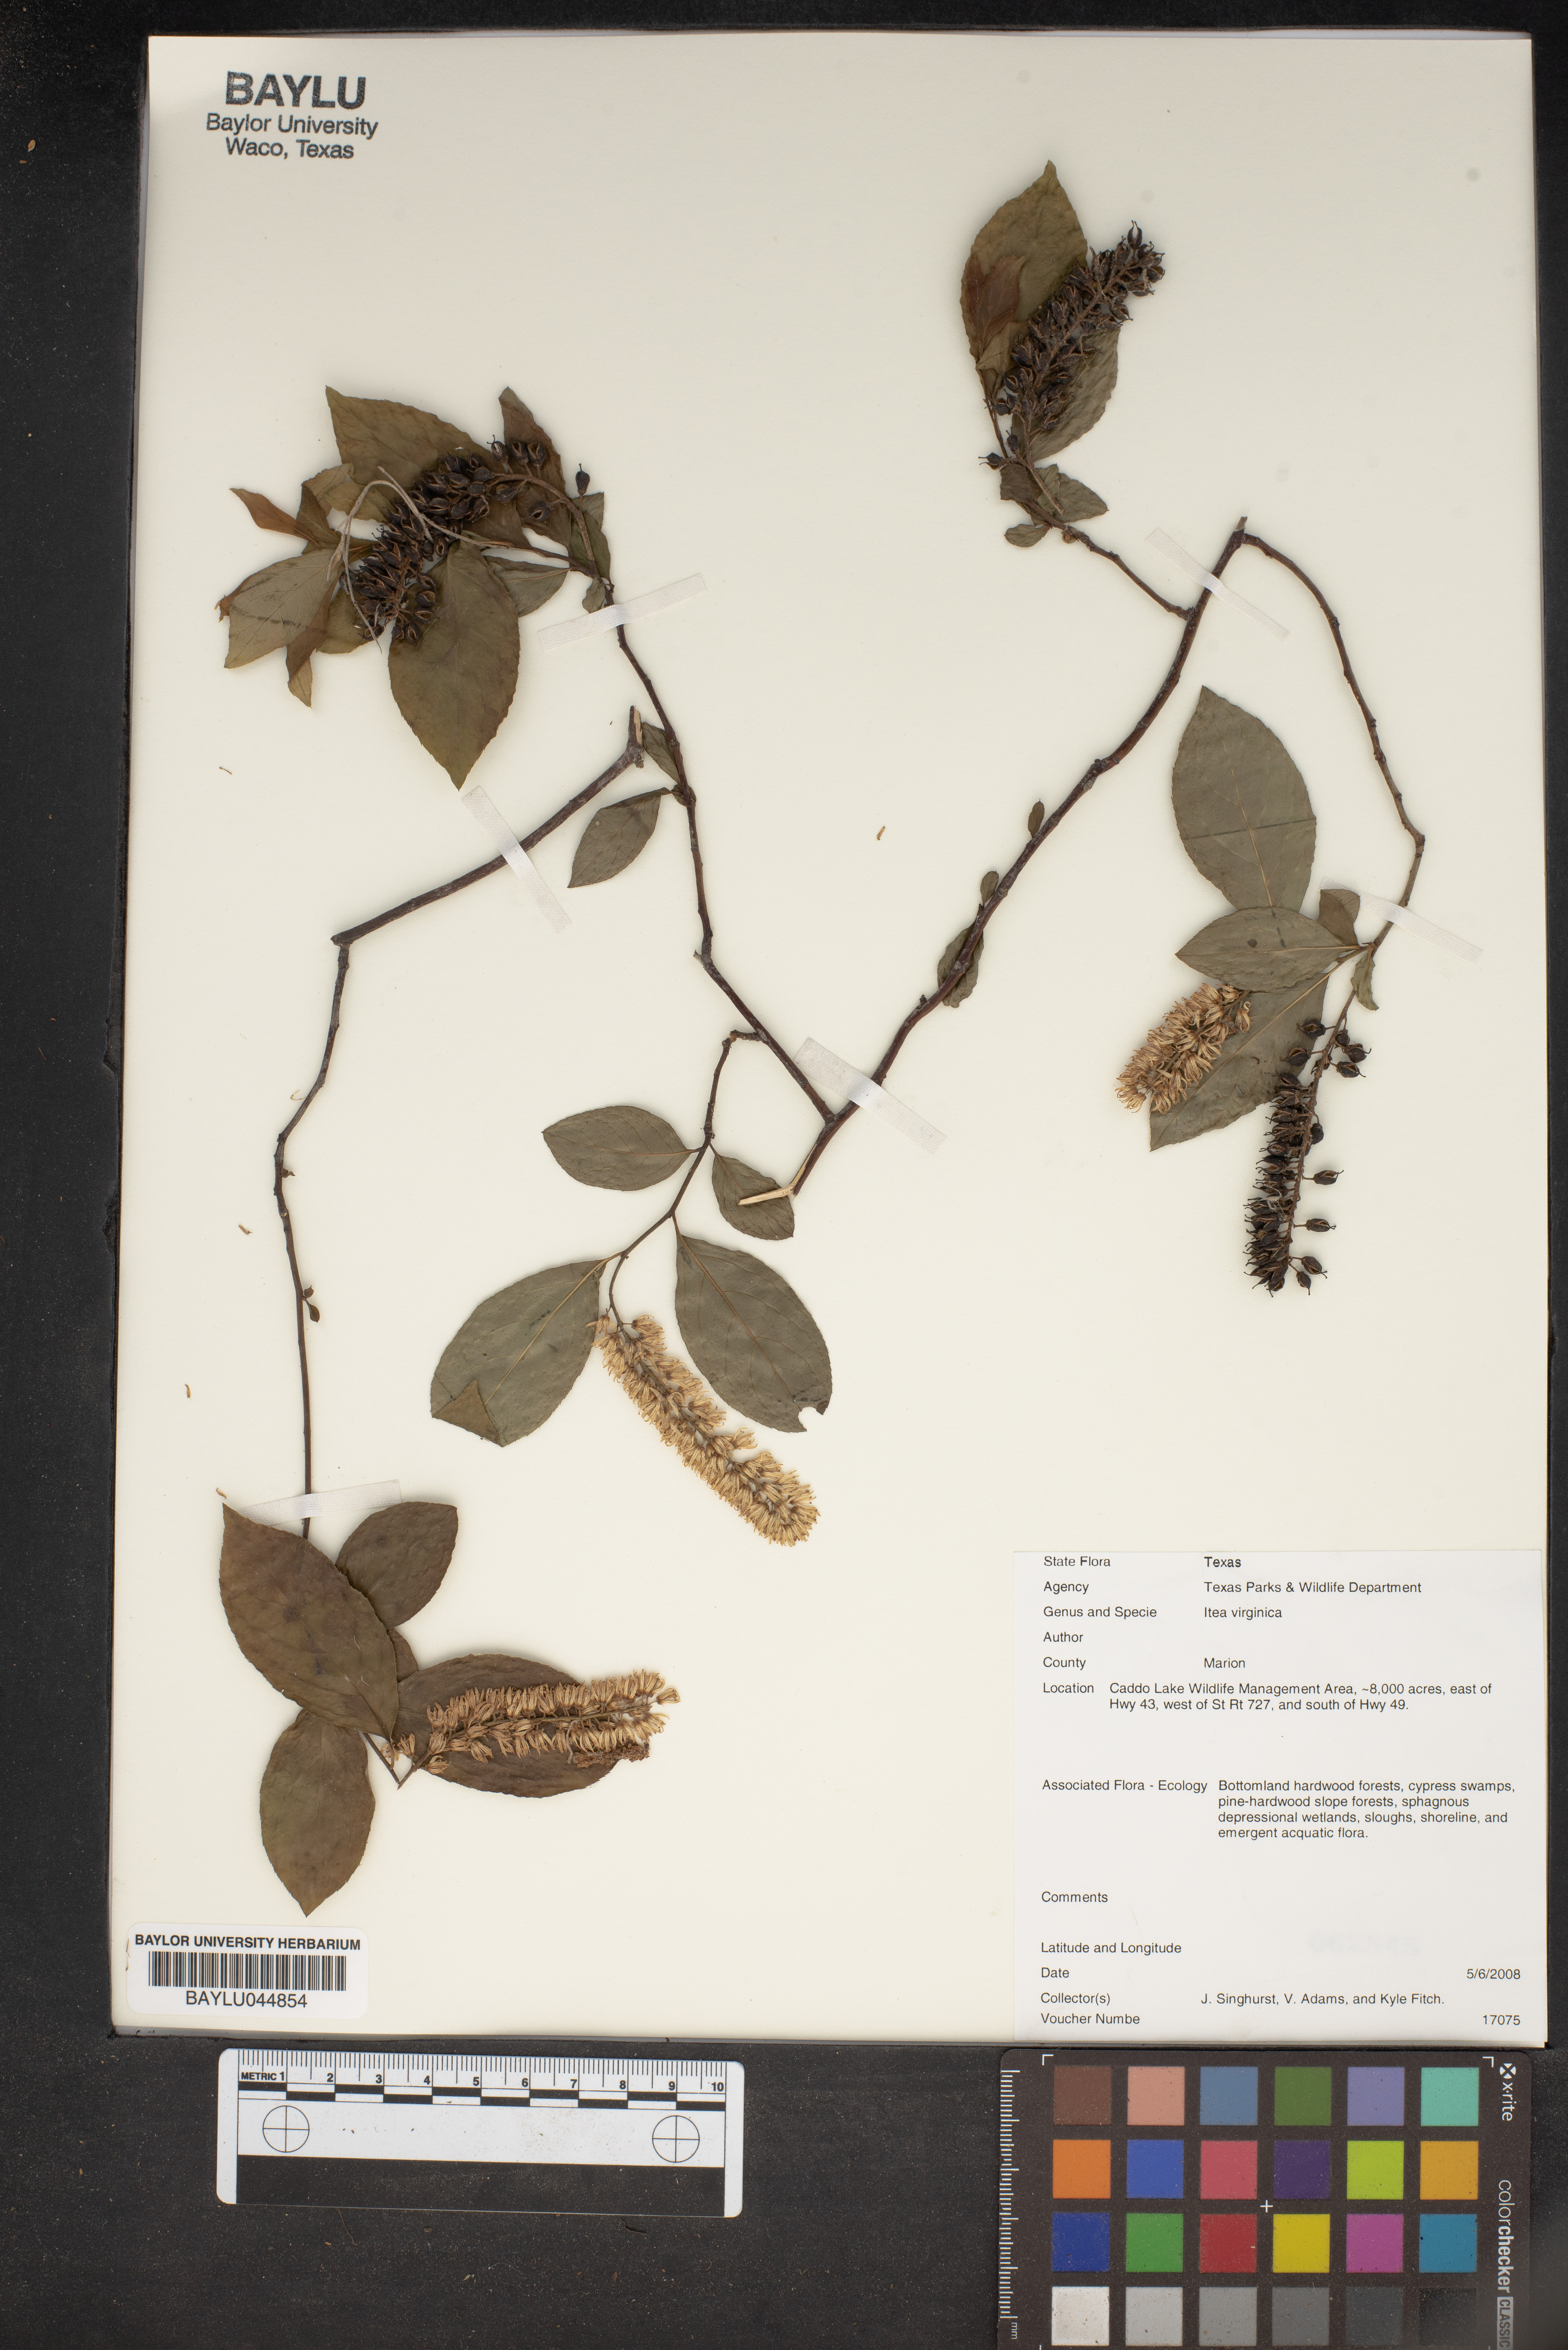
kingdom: Plantae
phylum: Tracheophyta
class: Magnoliopsida
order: Saxifragales
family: Iteaceae
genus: Itea
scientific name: Itea virginica
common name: Sweetspire
